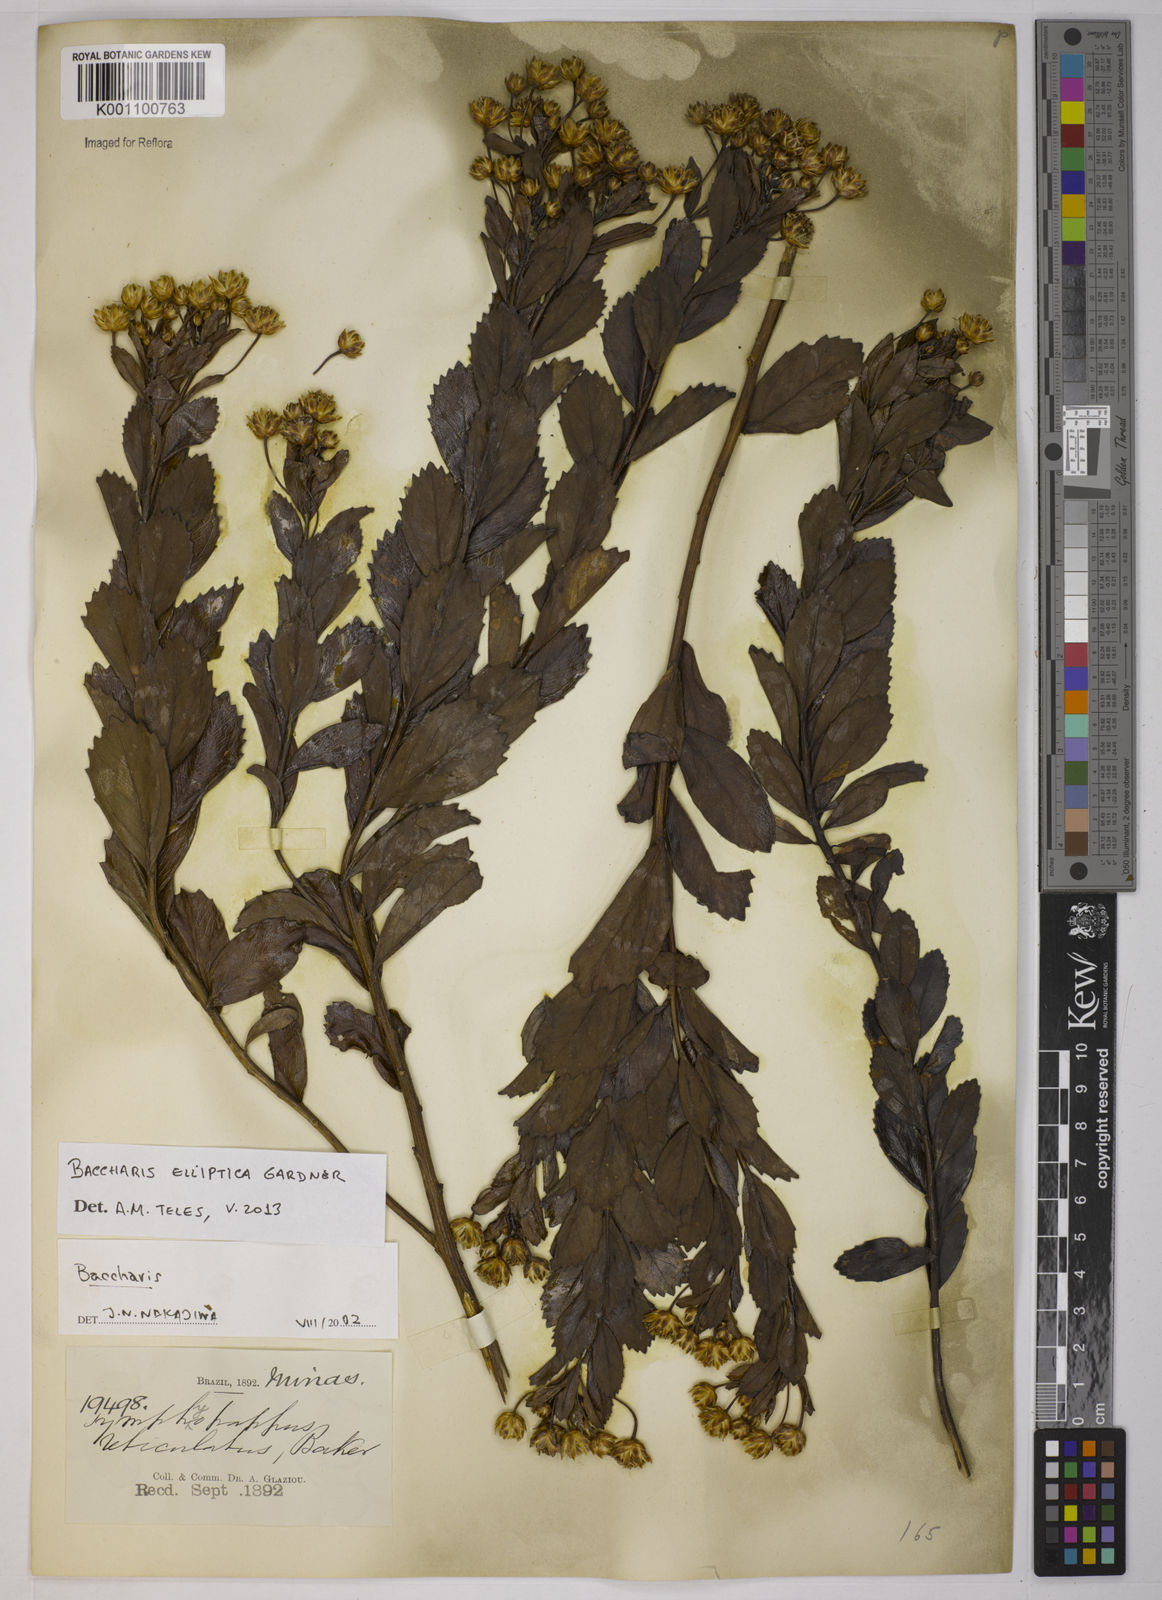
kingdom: Plantae
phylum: Tracheophyta
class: Magnoliopsida
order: Asterales
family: Asteraceae
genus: Baccharis
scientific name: Baccharis elliptica
